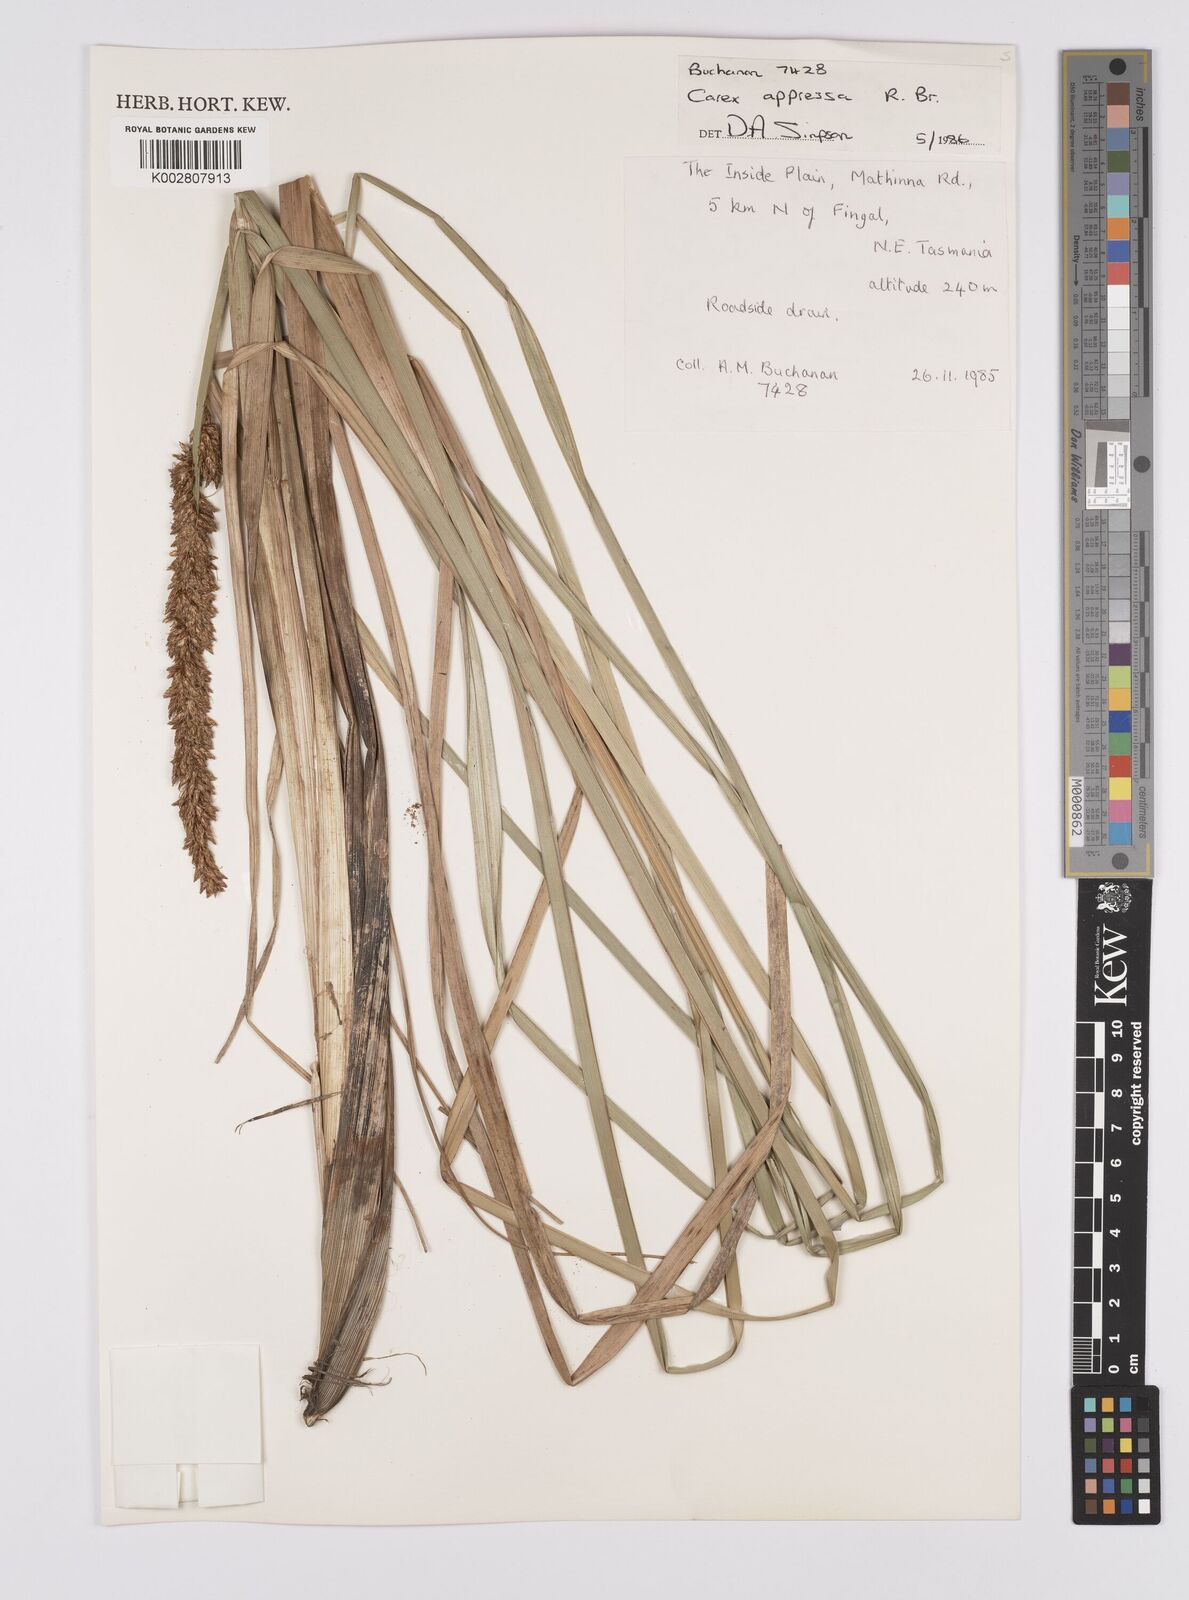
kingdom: Plantae
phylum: Tracheophyta
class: Liliopsida
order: Poales
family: Cyperaceae
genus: Carex
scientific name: Carex appressa
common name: Tussock sedge
